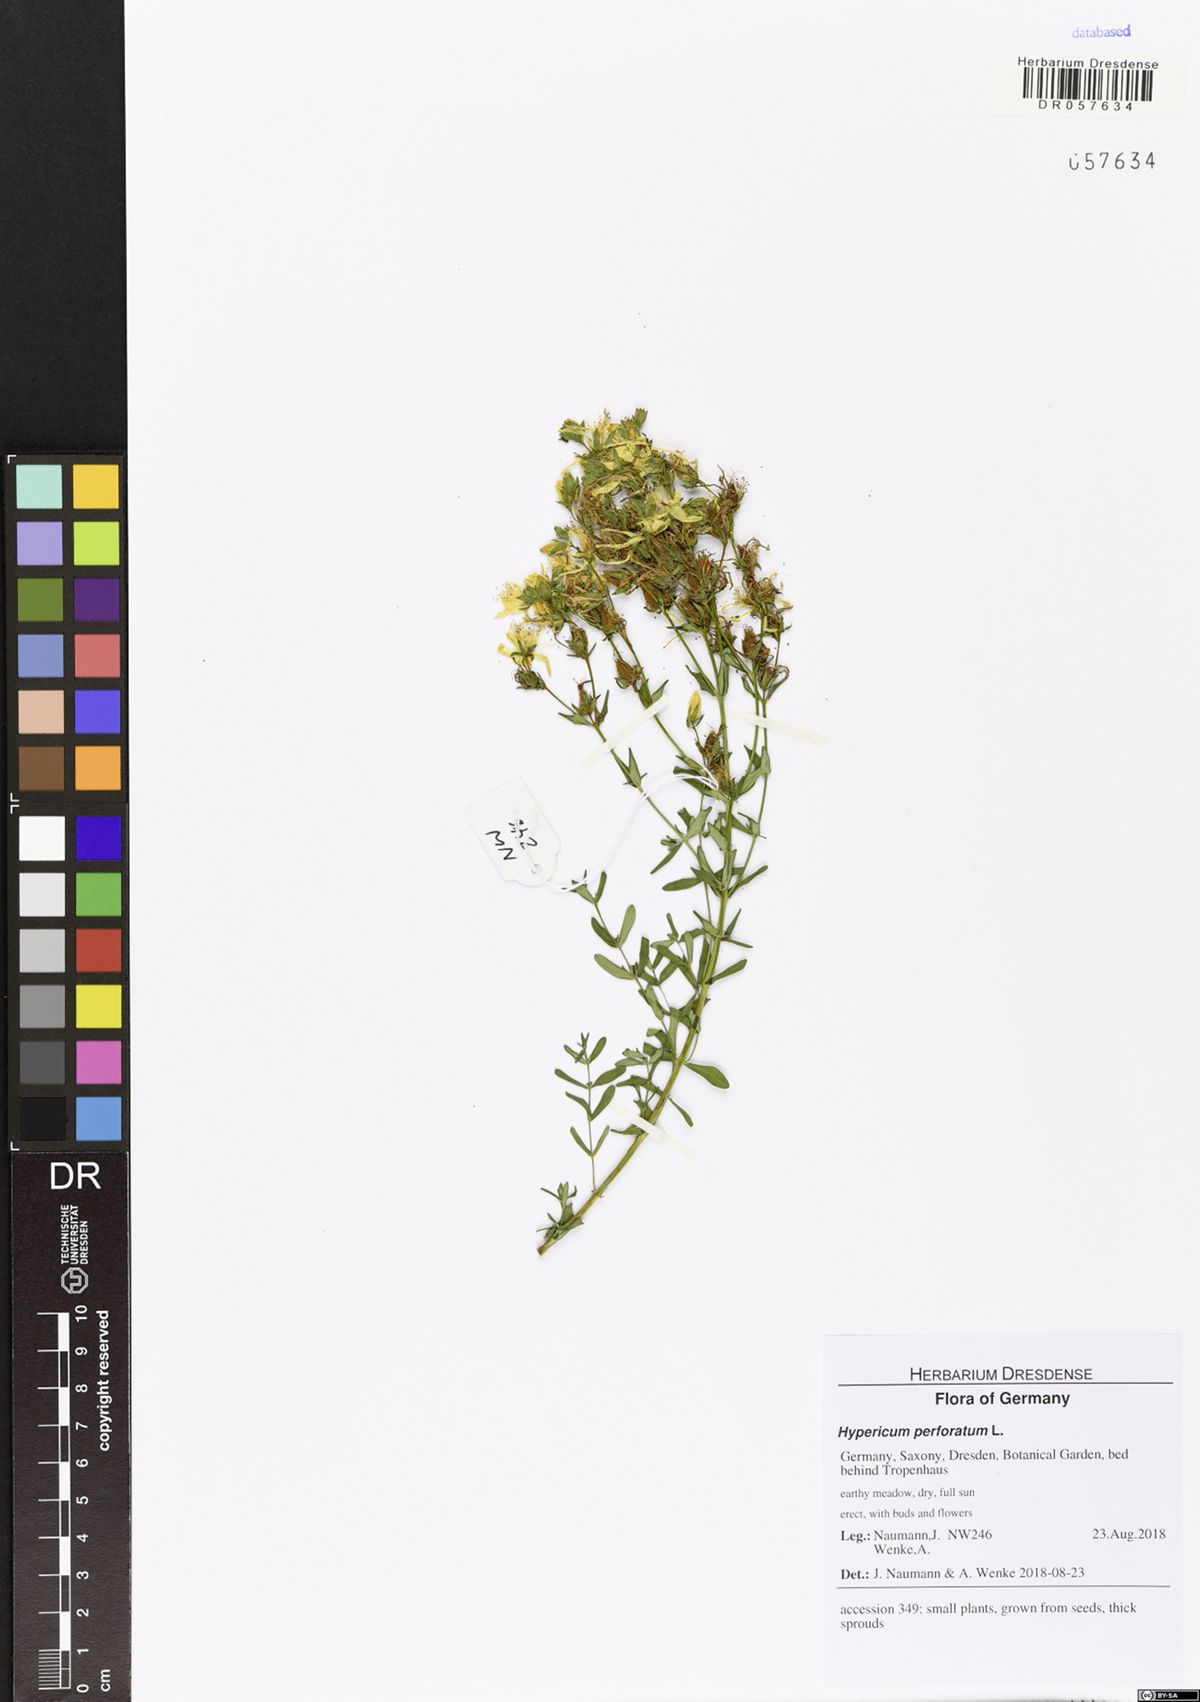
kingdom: Plantae
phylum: Tracheophyta
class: Magnoliopsida
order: Malpighiales
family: Hypericaceae
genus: Hypericum
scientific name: Hypericum perforatum
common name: Common st. johnswort
